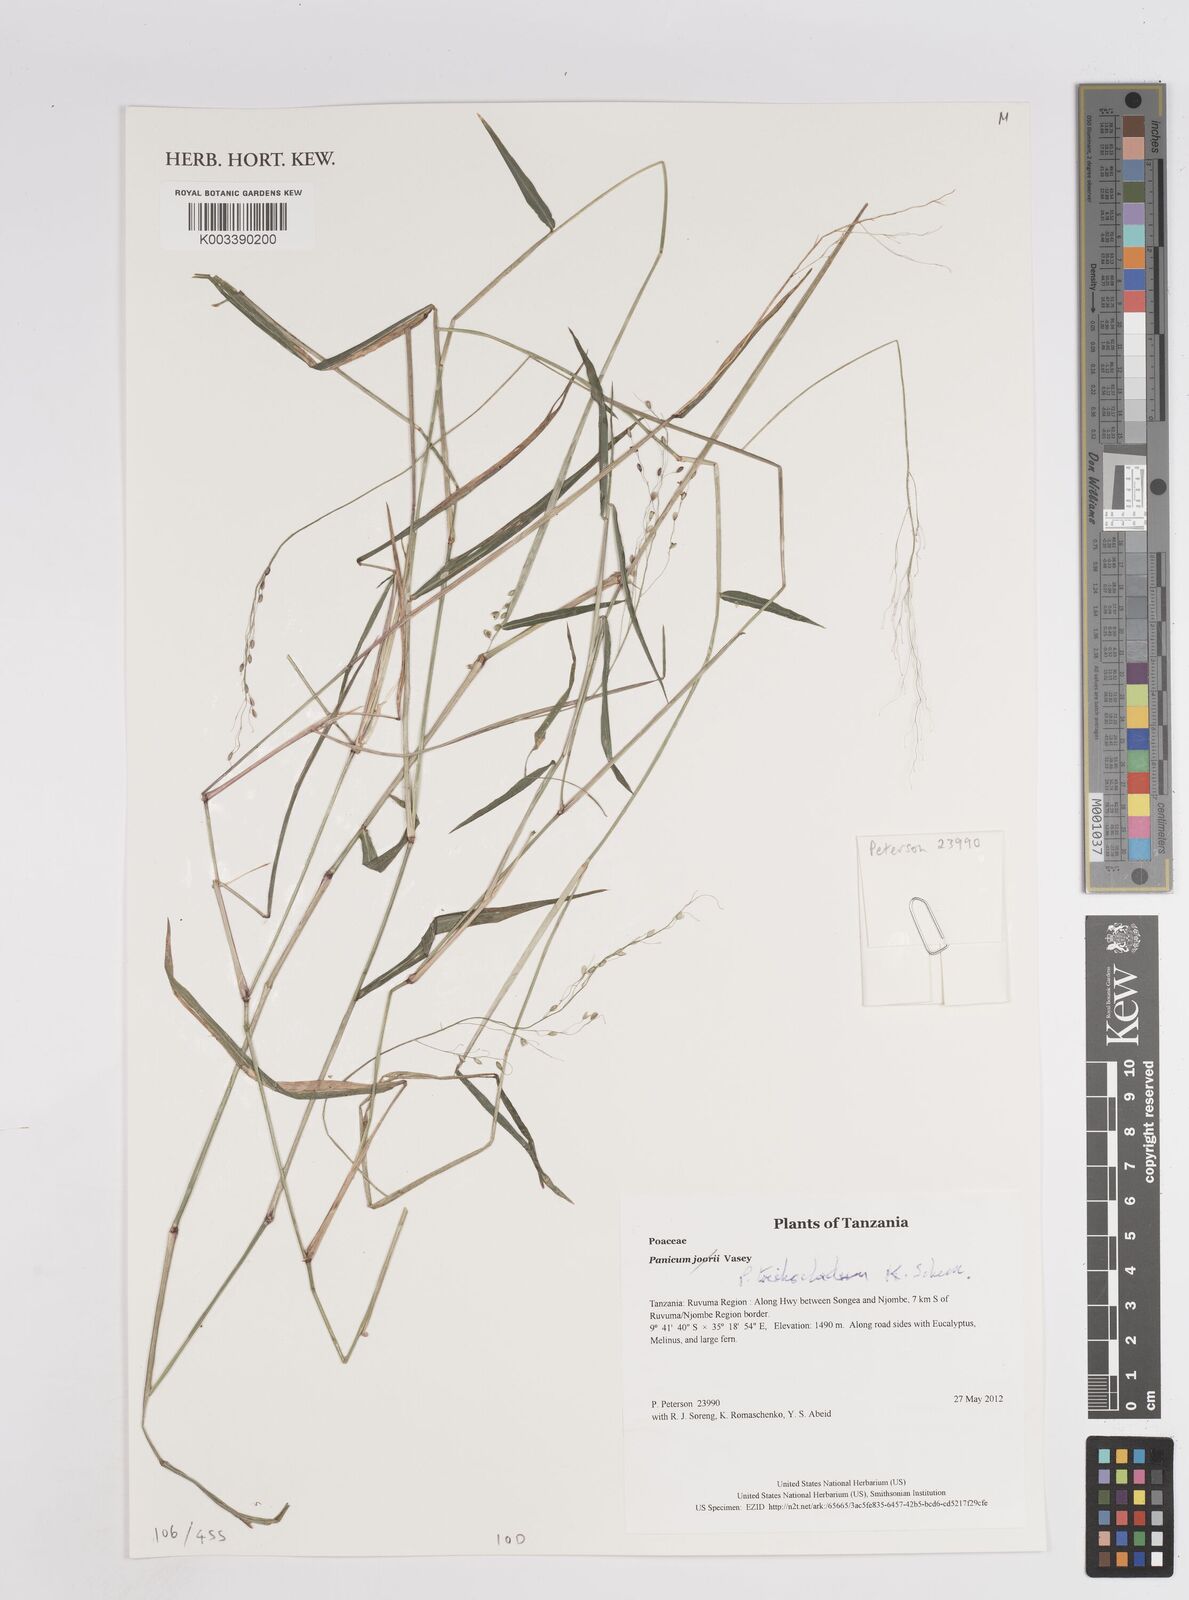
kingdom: Plantae
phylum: Tracheophyta
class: Liliopsida
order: Poales
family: Poaceae
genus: Panicum
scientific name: Panicum trichocladum
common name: Donkey grass
